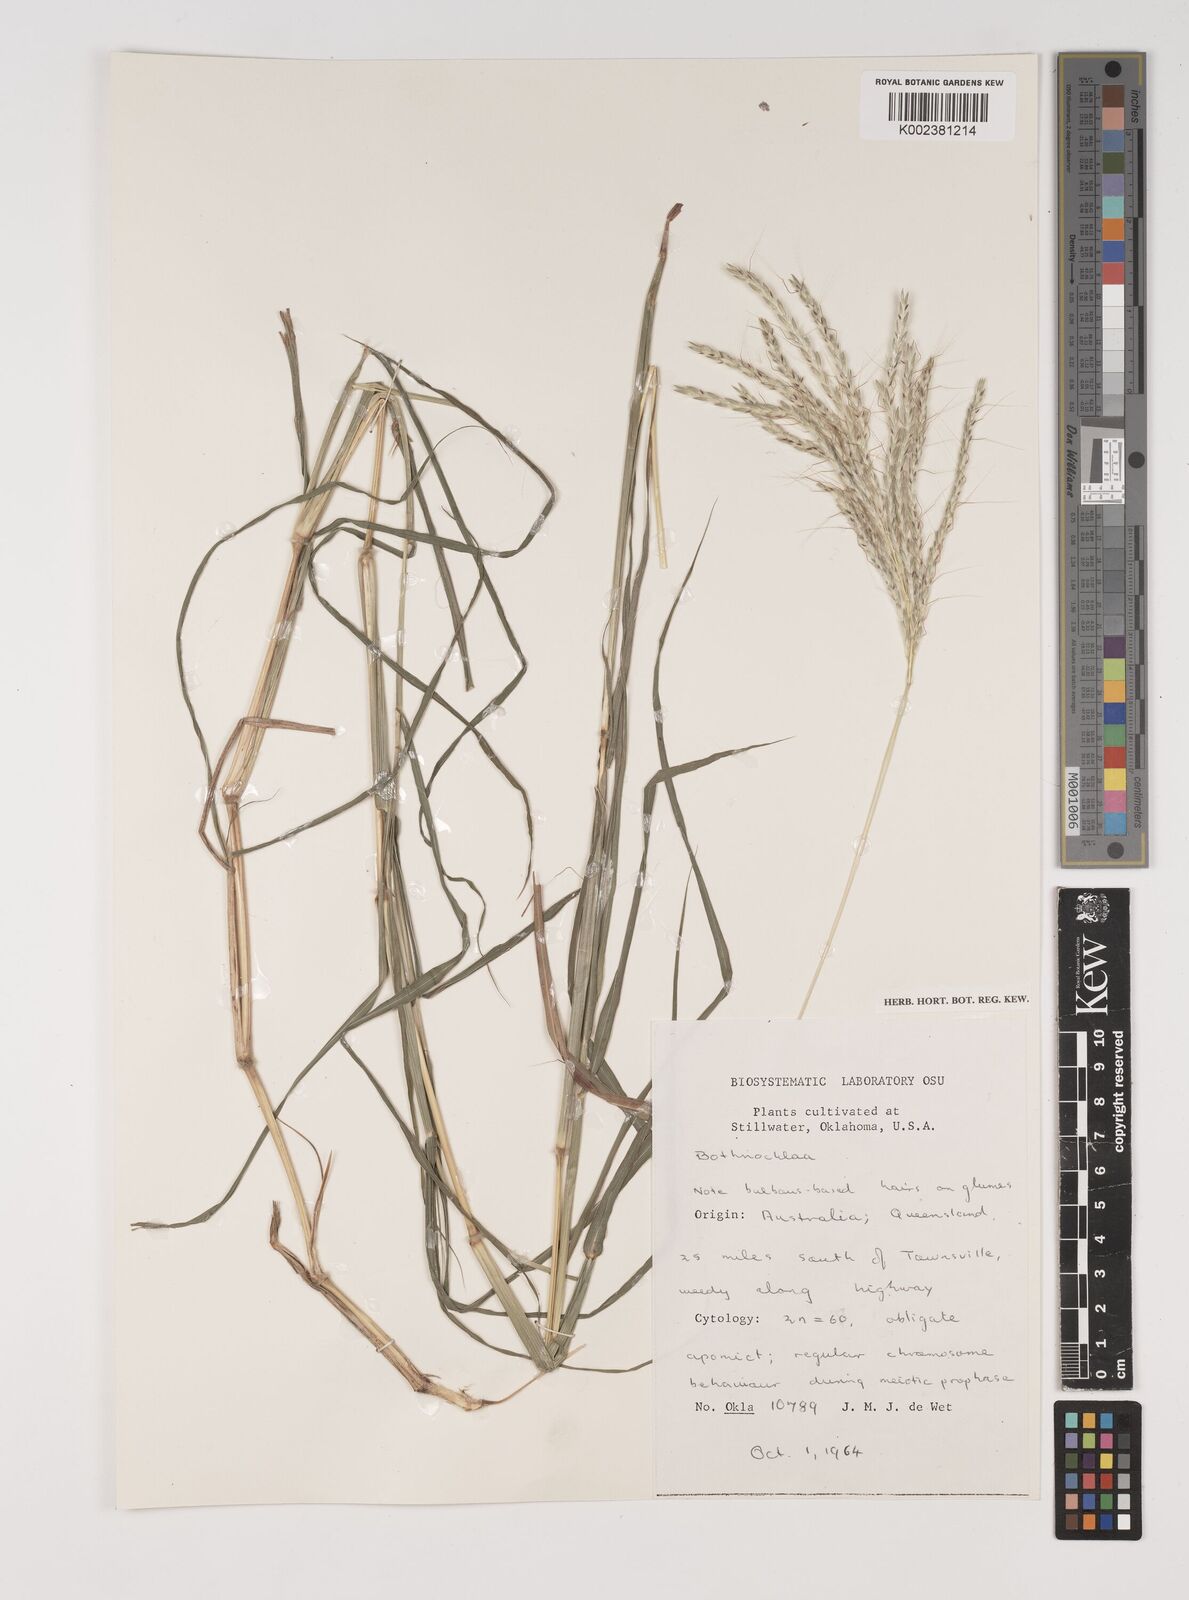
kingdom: Plantae
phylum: Tracheophyta
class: Liliopsida
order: Poales
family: Poaceae
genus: Bothriochloa
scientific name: Bothriochloa
